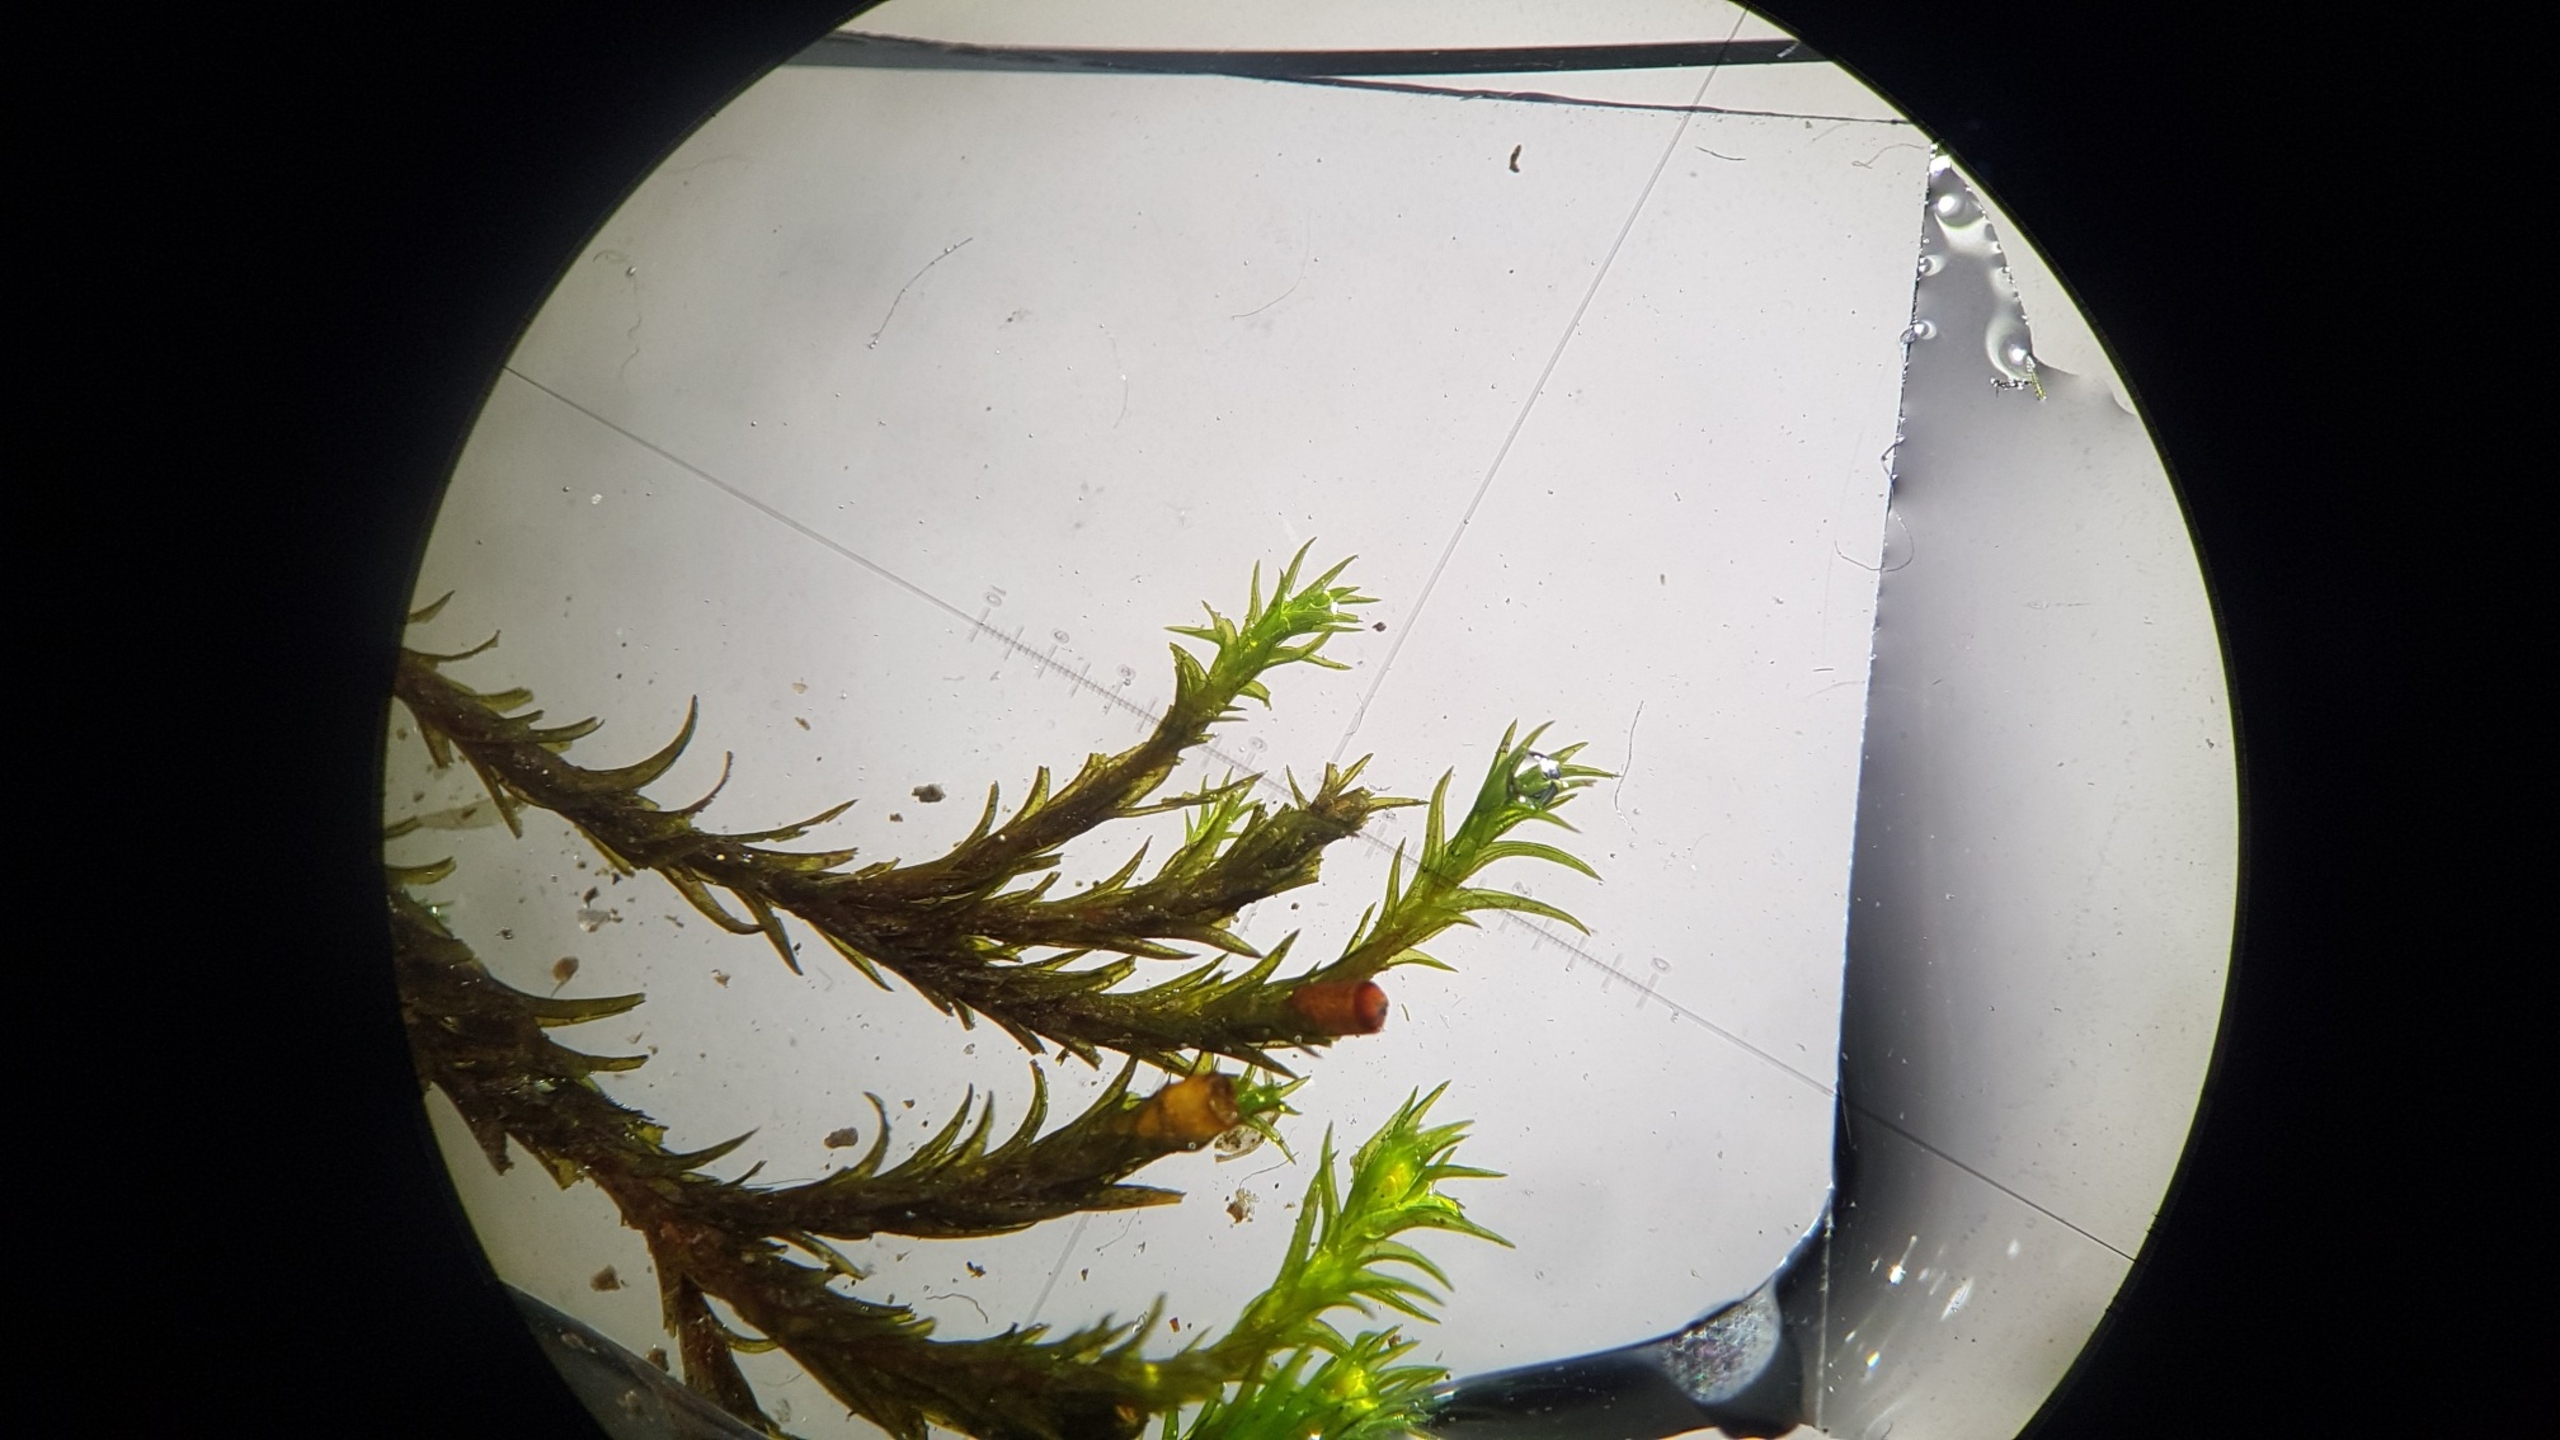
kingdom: Plantae
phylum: Bryophyta
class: Bryopsida
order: Grimmiales
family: Grimmiaceae
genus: Schistidium
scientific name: Schistidium apocarpum
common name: Grå strålekransmos
